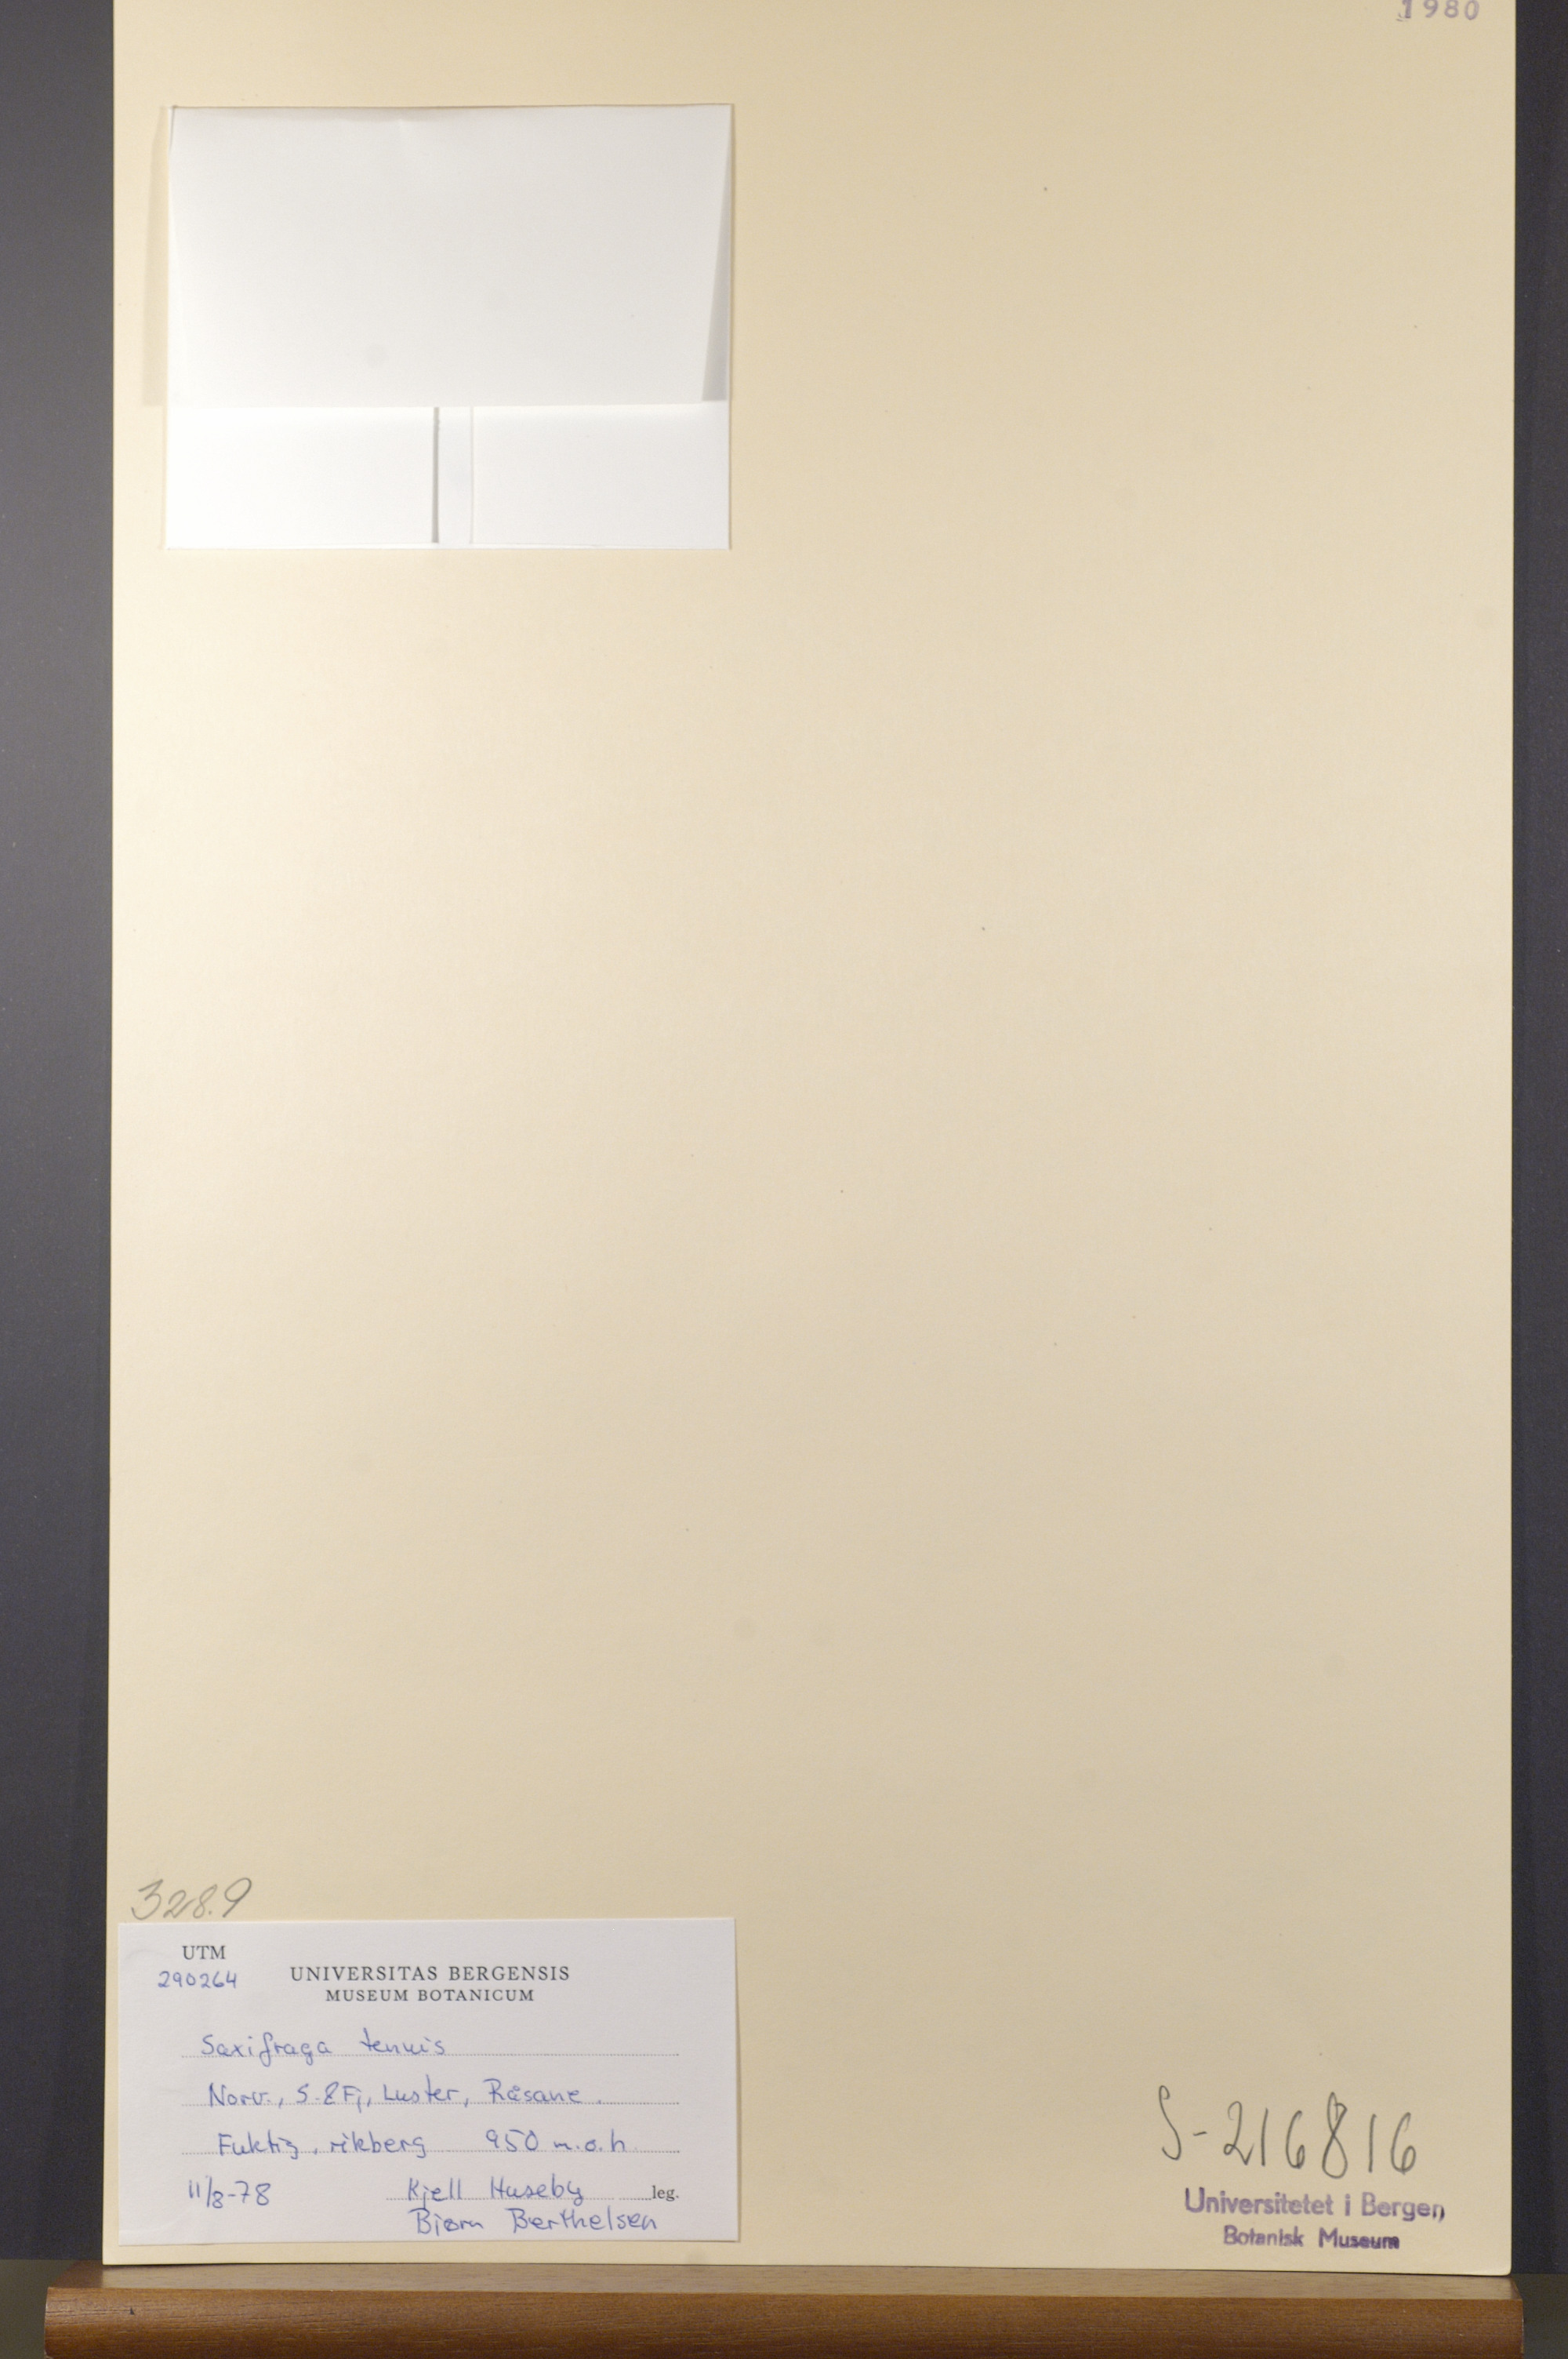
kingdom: Plantae
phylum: Tracheophyta
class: Magnoliopsida
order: Saxifragales
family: Saxifragaceae
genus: Micranthes
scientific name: Micranthes tenuis
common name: Ottertail pass saxifrage
